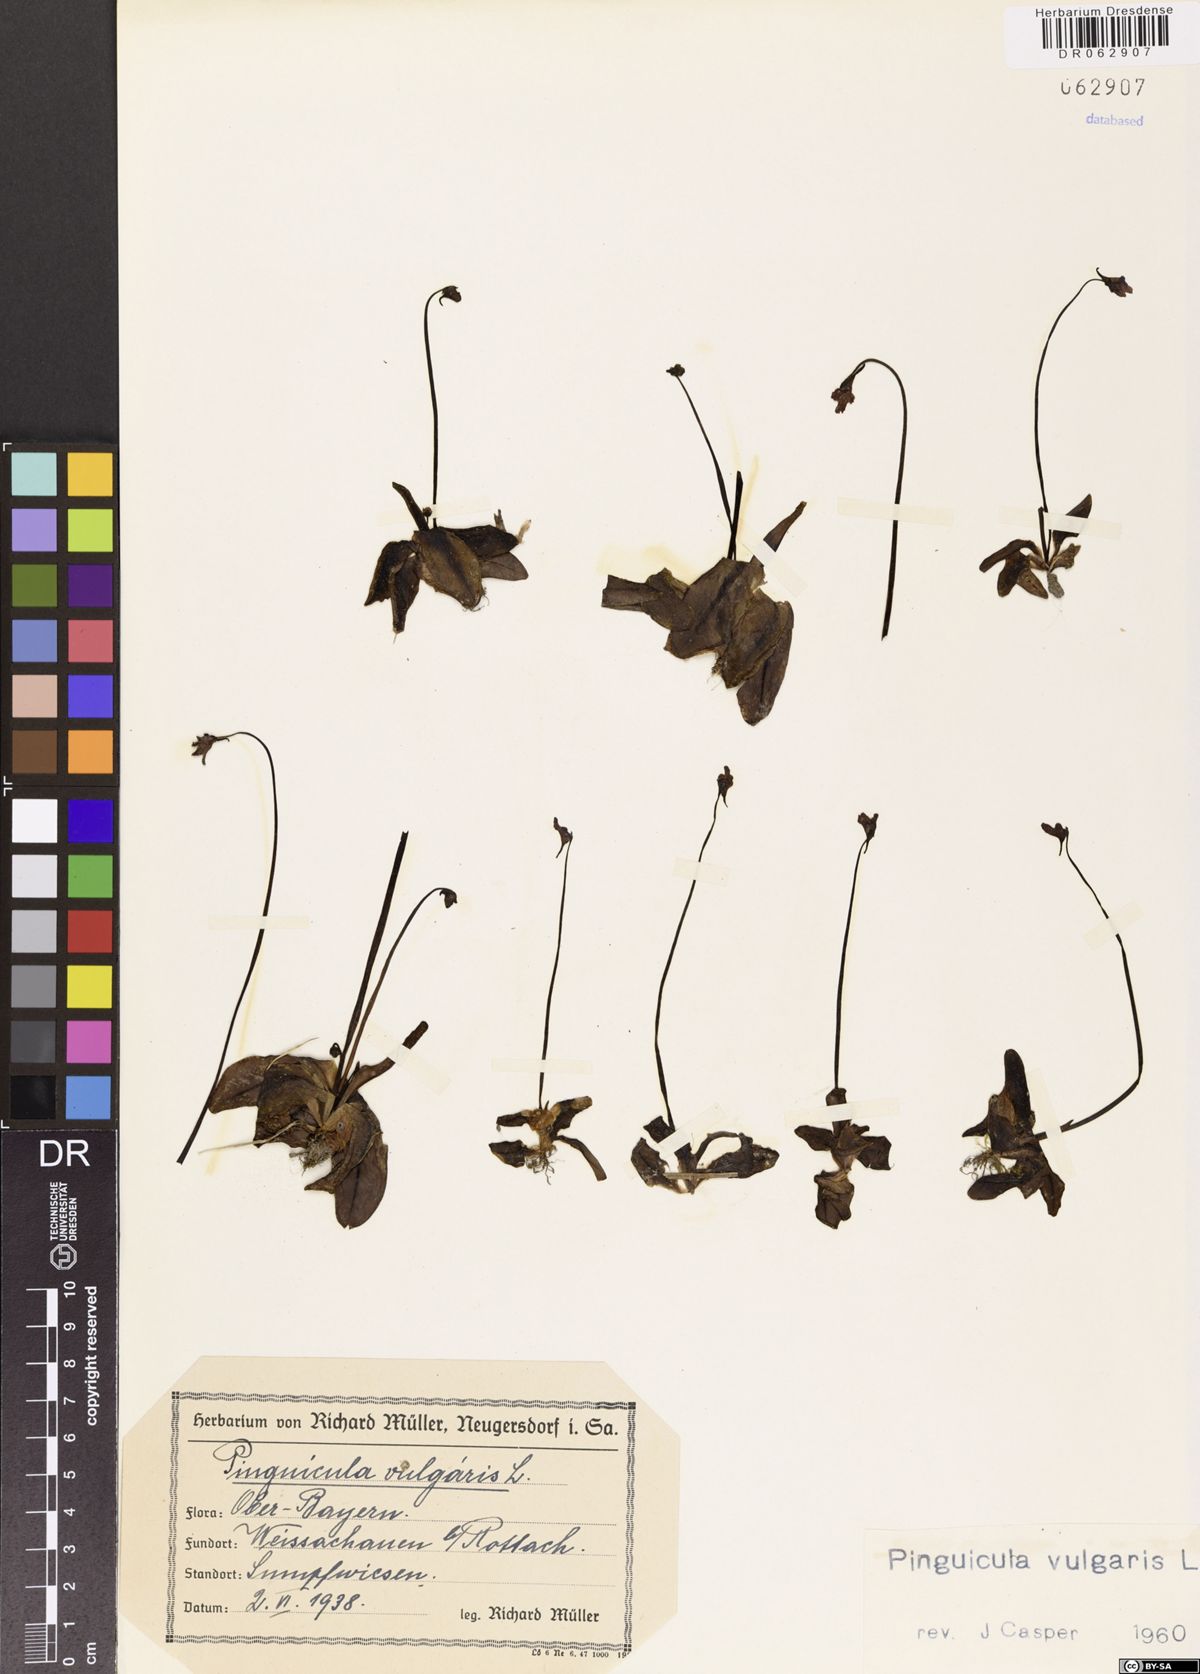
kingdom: Plantae
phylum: Tracheophyta
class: Magnoliopsida
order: Lamiales
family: Lentibulariaceae
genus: Pinguicula
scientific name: Pinguicula vulgaris
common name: Common butterwort
